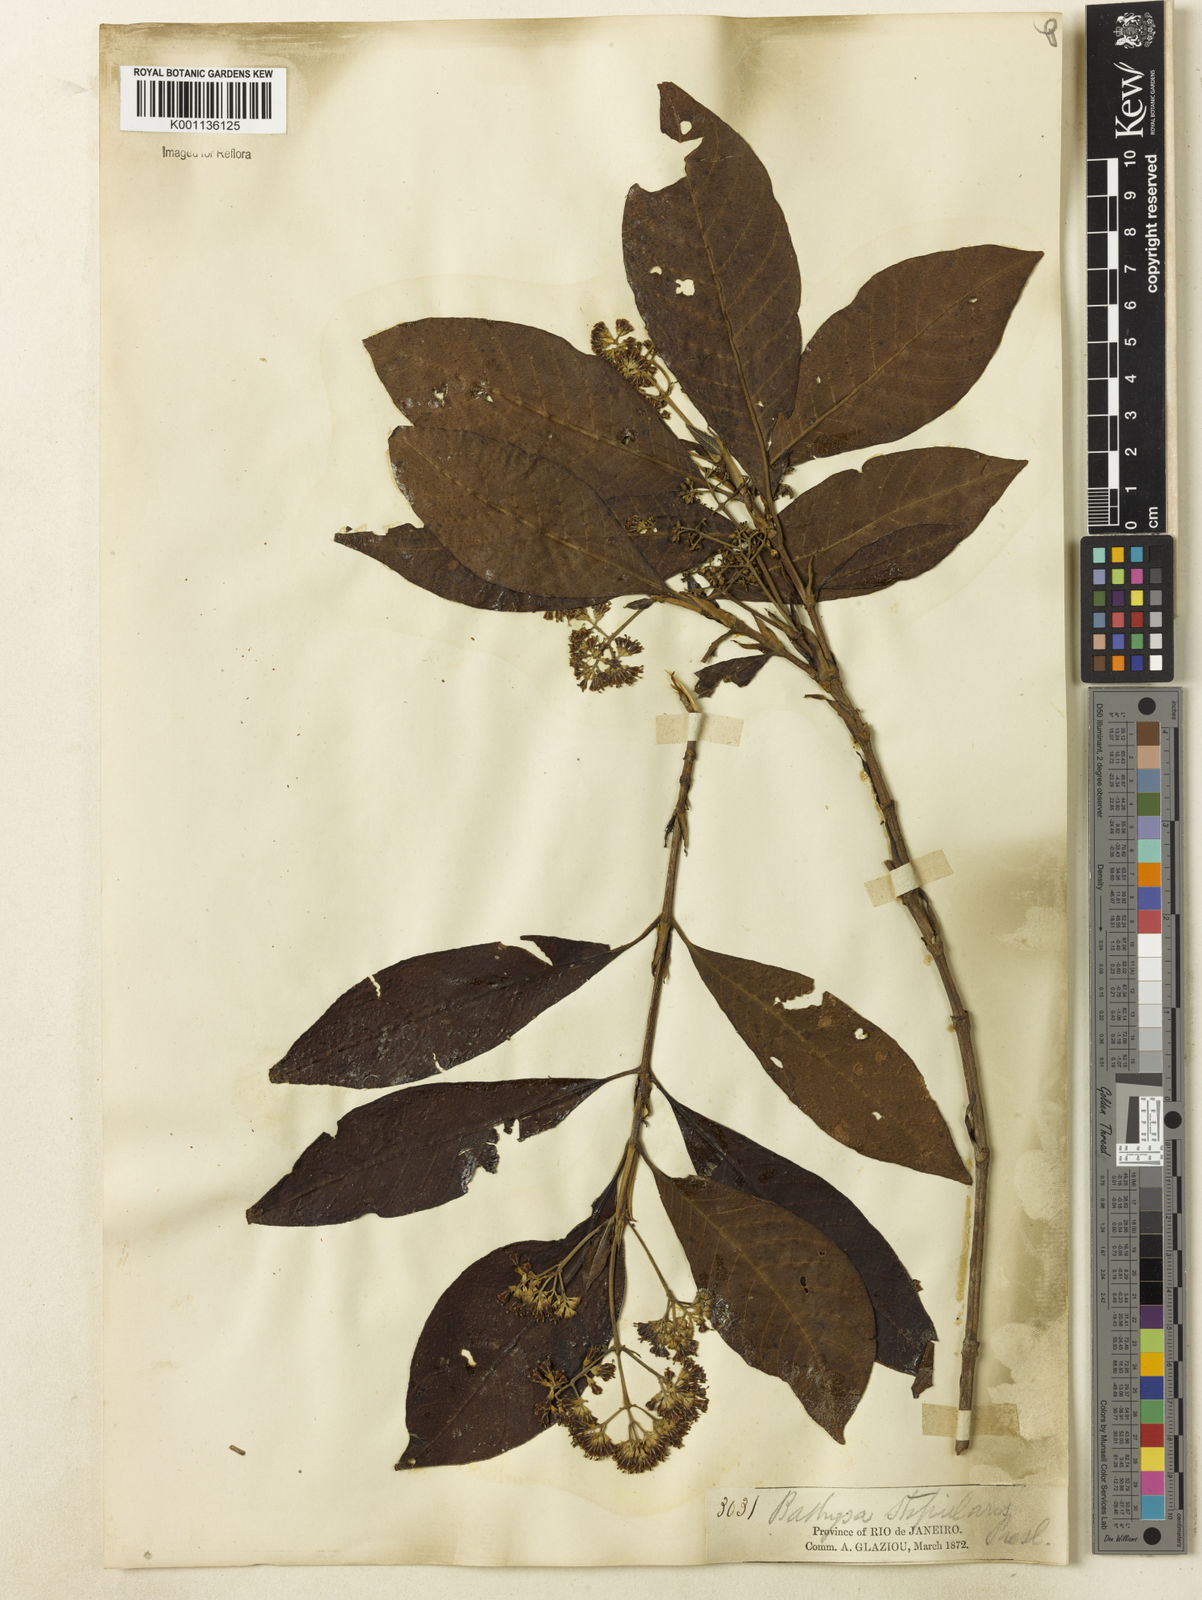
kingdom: Plantae
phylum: Tracheophyta
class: Magnoliopsida
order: Gentianales
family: Rubiaceae
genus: Bathysa
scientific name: Bathysa stipulata
